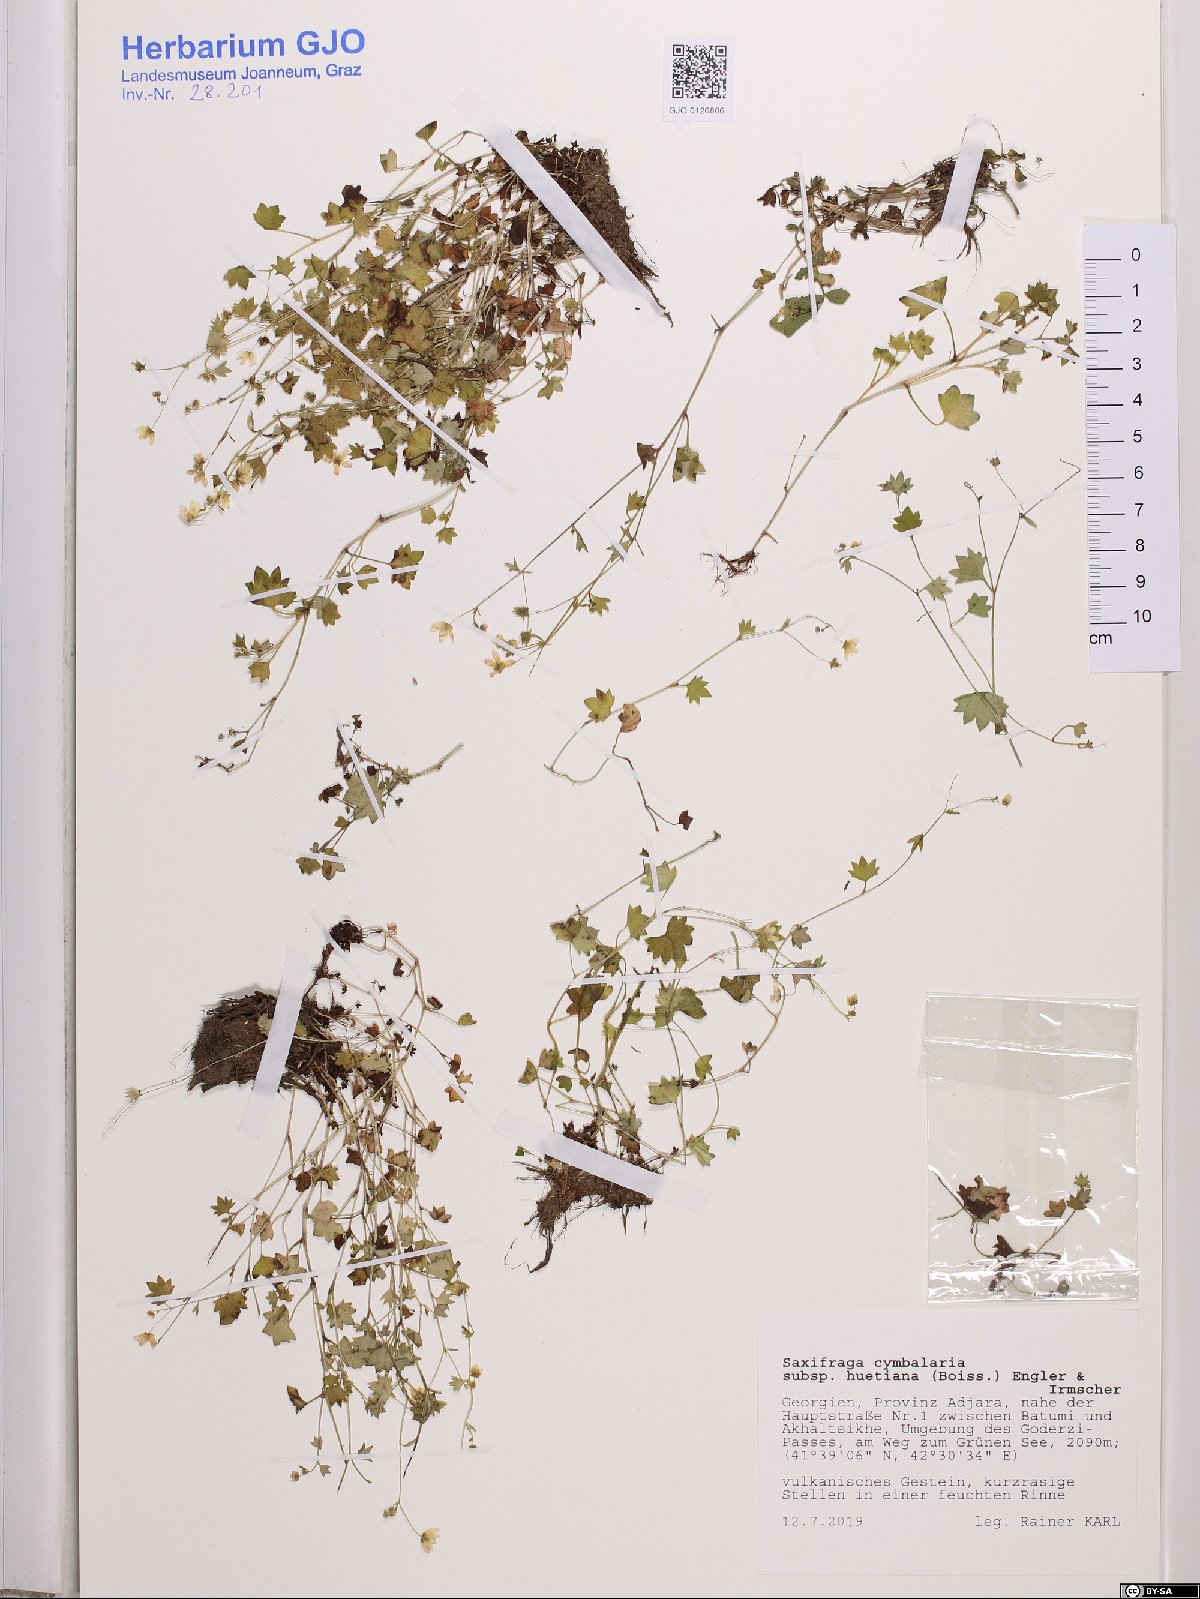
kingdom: Plantae
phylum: Tracheophyta
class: Magnoliopsida
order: Saxifragales
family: Saxifragaceae
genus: Saxifraga
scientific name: Saxifraga cymbalaria
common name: Celandine saxifrage
